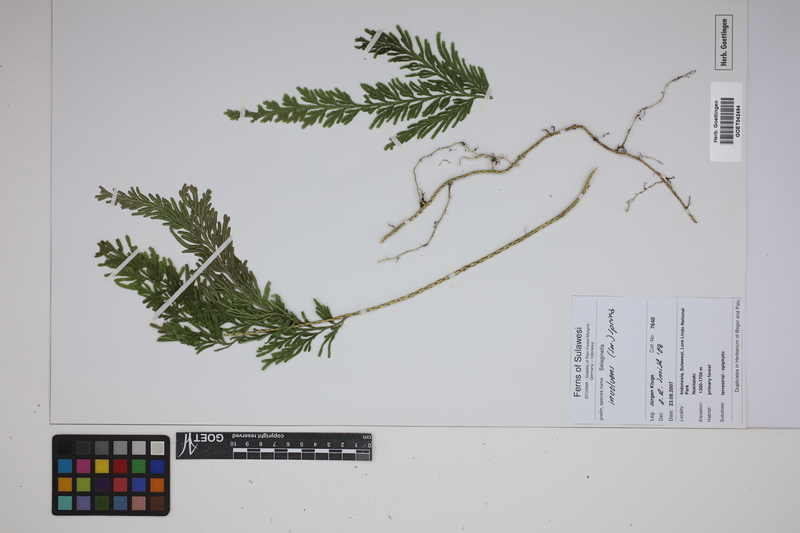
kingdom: Plantae
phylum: Tracheophyta
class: Lycopodiopsida
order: Selaginellales
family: Selaginellaceae
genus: Selaginella
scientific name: Selaginella involvens
